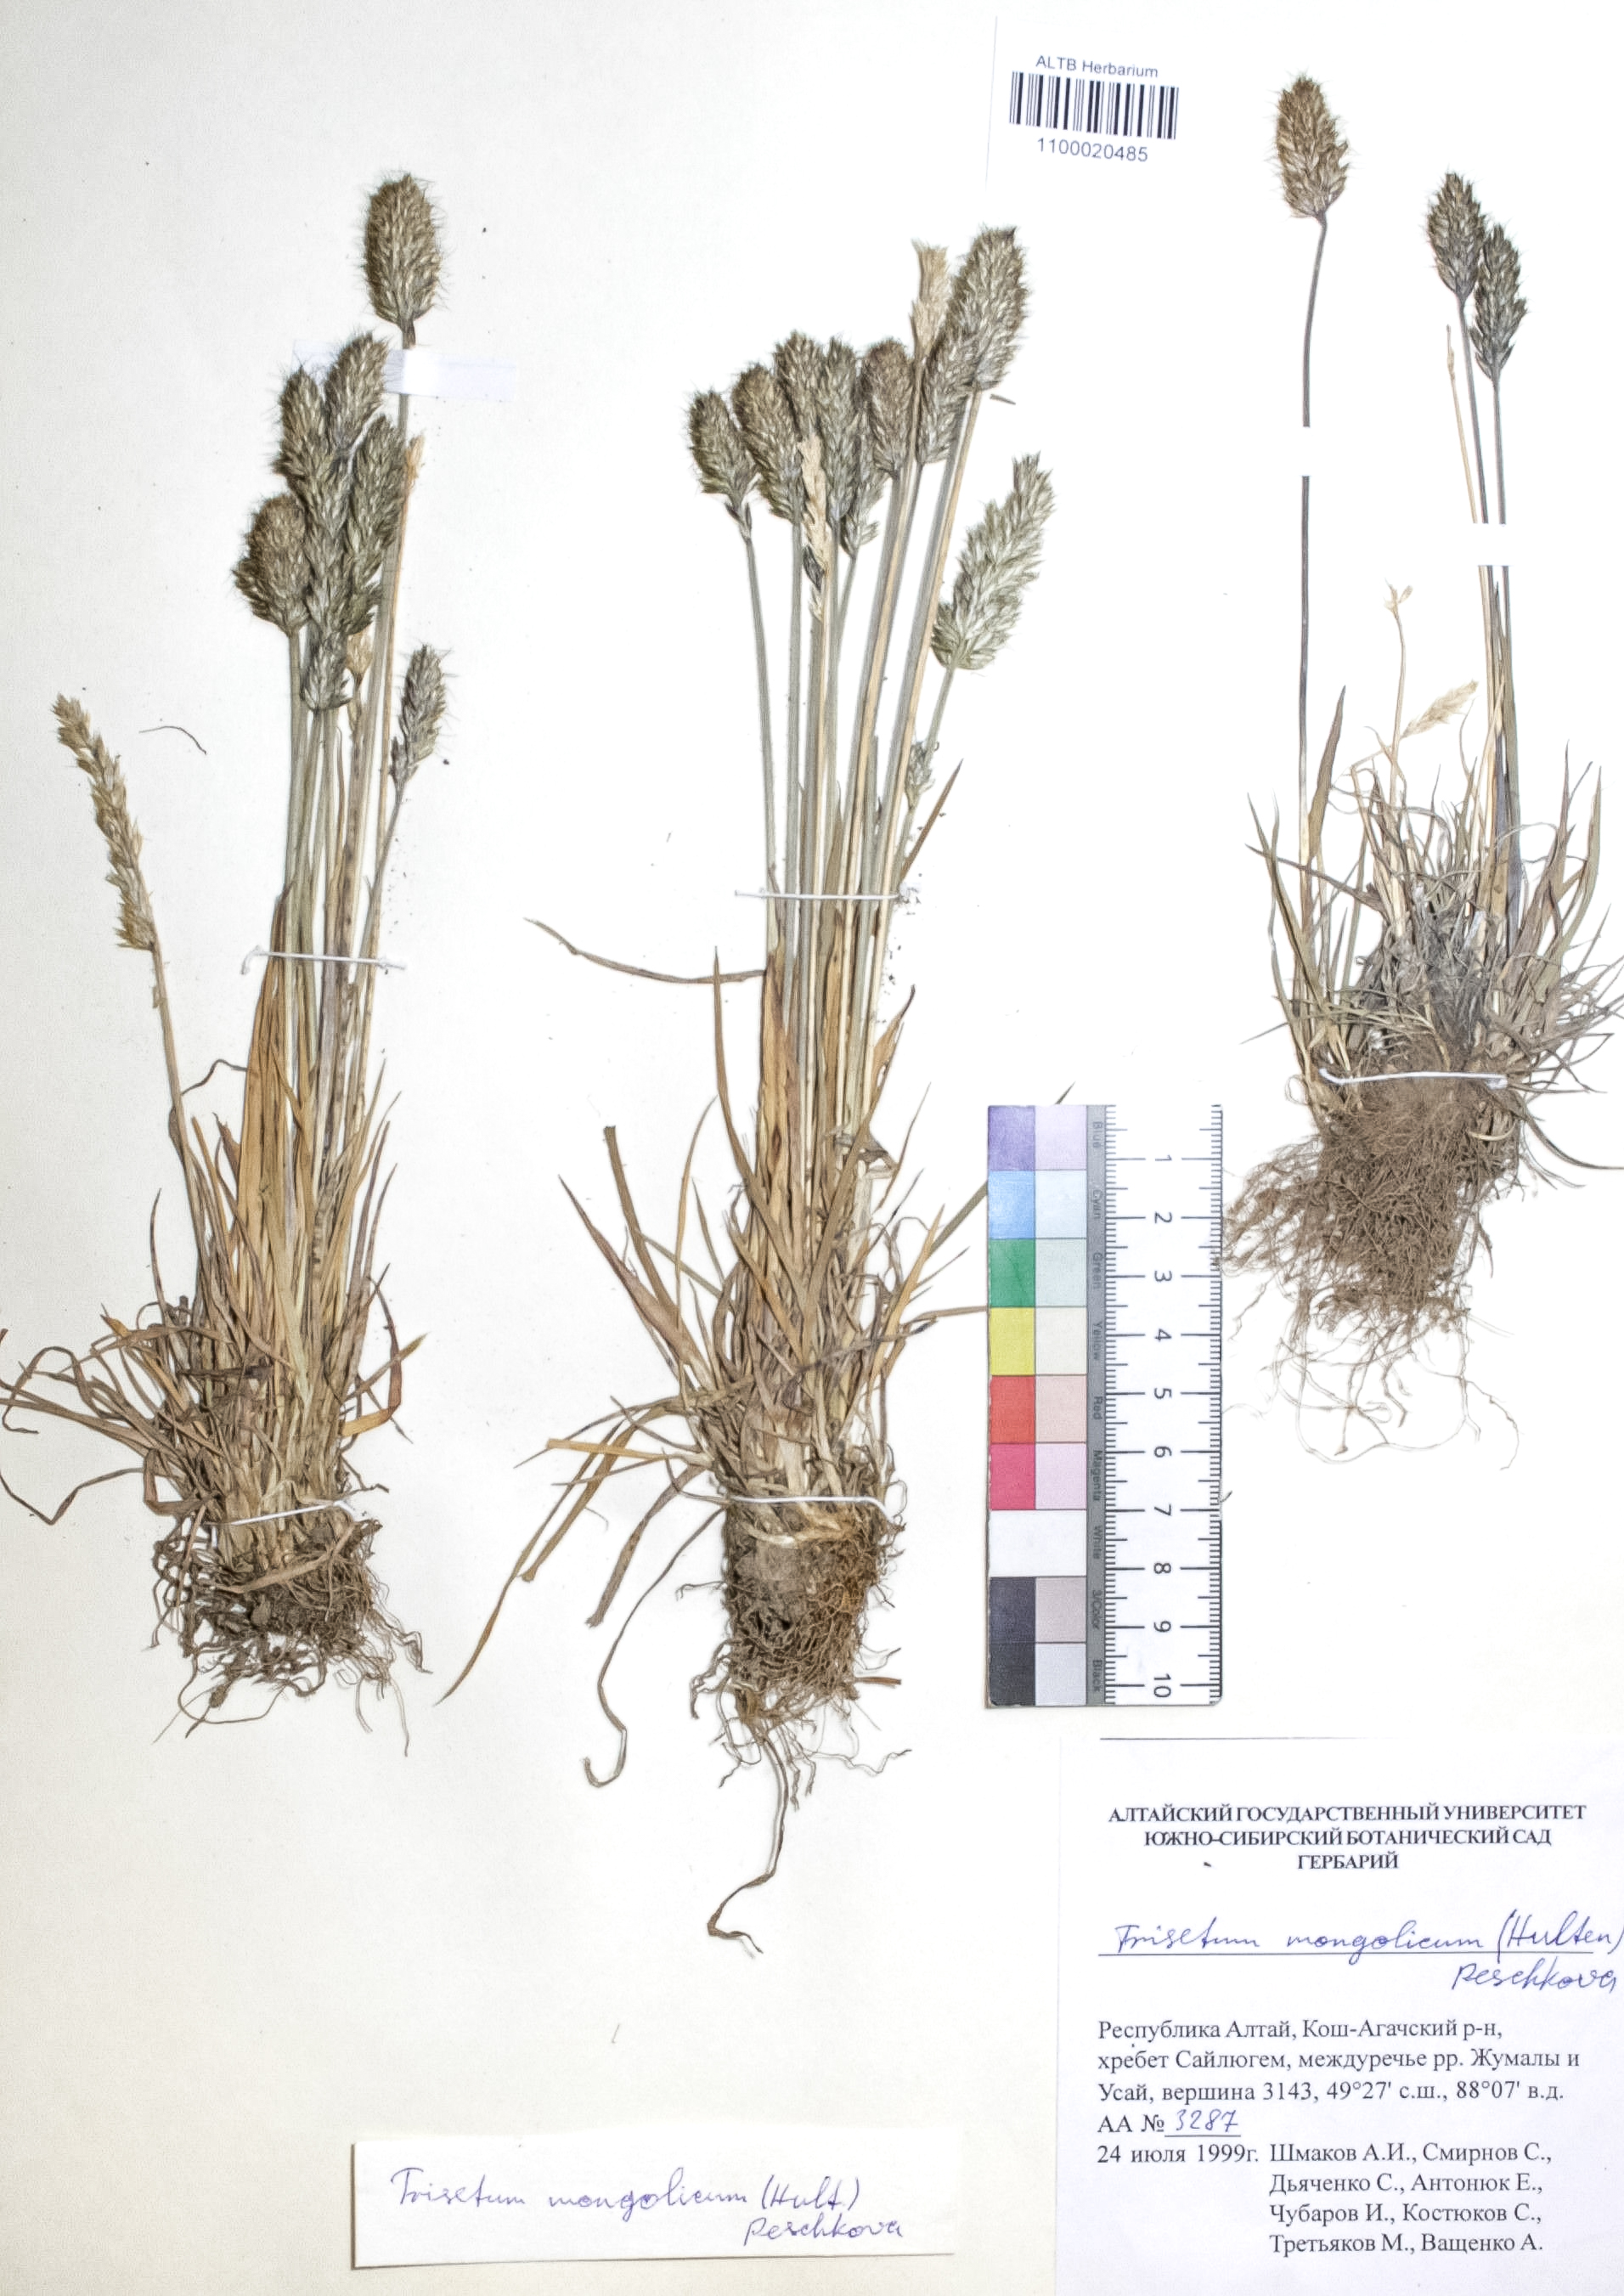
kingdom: Plantae
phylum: Tracheophyta
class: Liliopsida
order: Poales
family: Poaceae
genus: Koeleria
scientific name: Koeleria spicata
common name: Mountain trisetum
